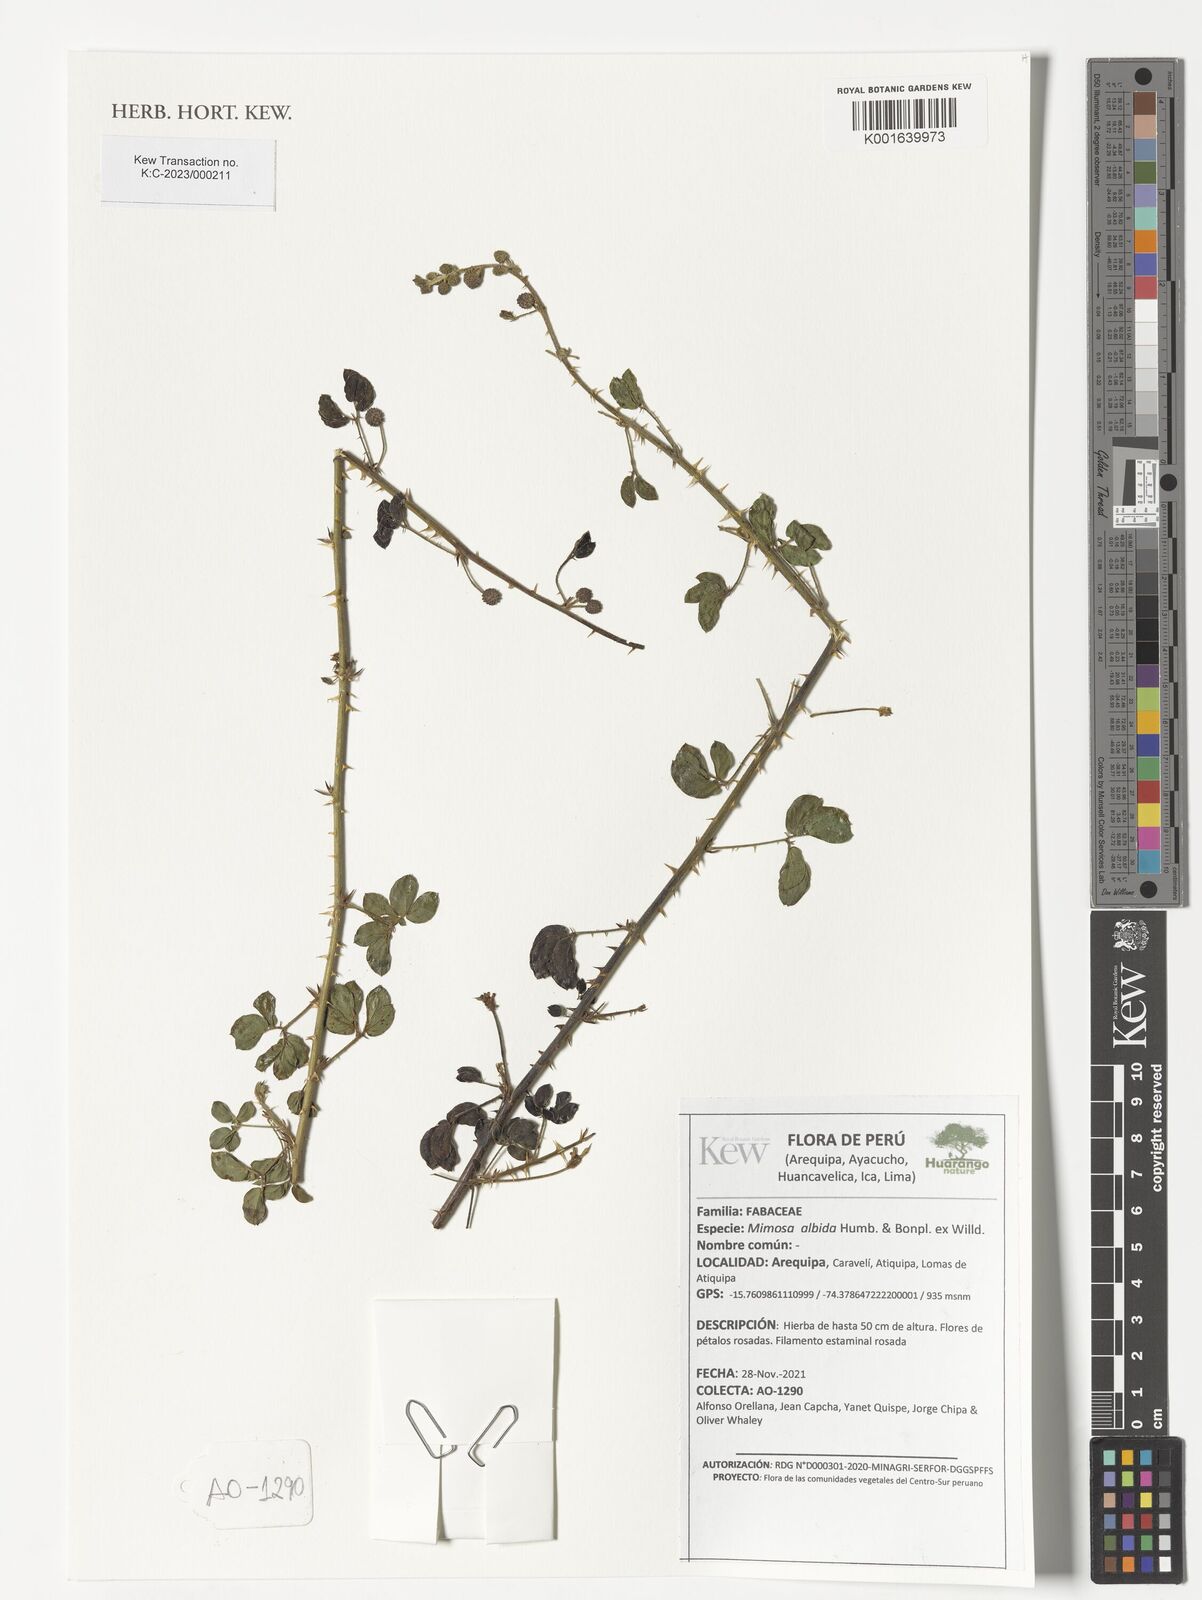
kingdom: Plantae
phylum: Tracheophyta
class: Magnoliopsida
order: Fabales
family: Fabaceae
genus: Mimosa
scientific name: Mimosa albida
